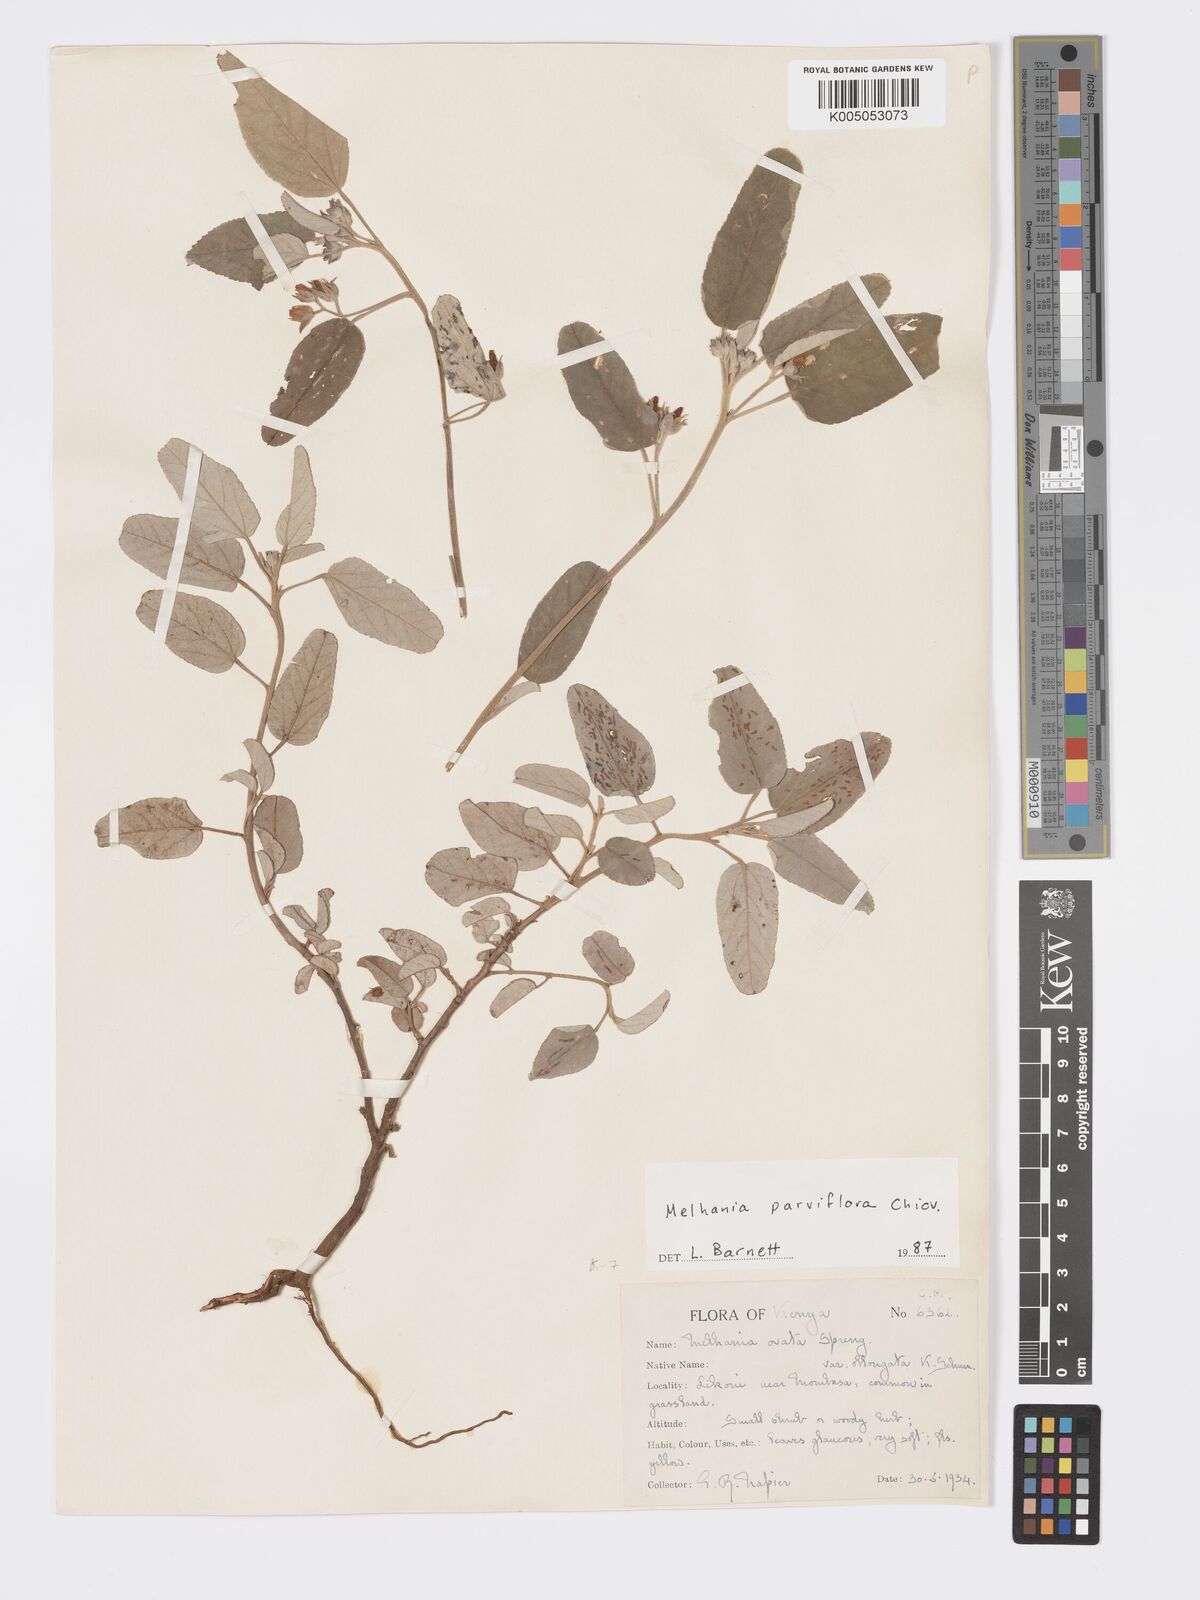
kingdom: Plantae
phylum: Tracheophyta
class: Magnoliopsida
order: Malvales
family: Malvaceae
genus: Melhania
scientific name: Melhania parviflora
